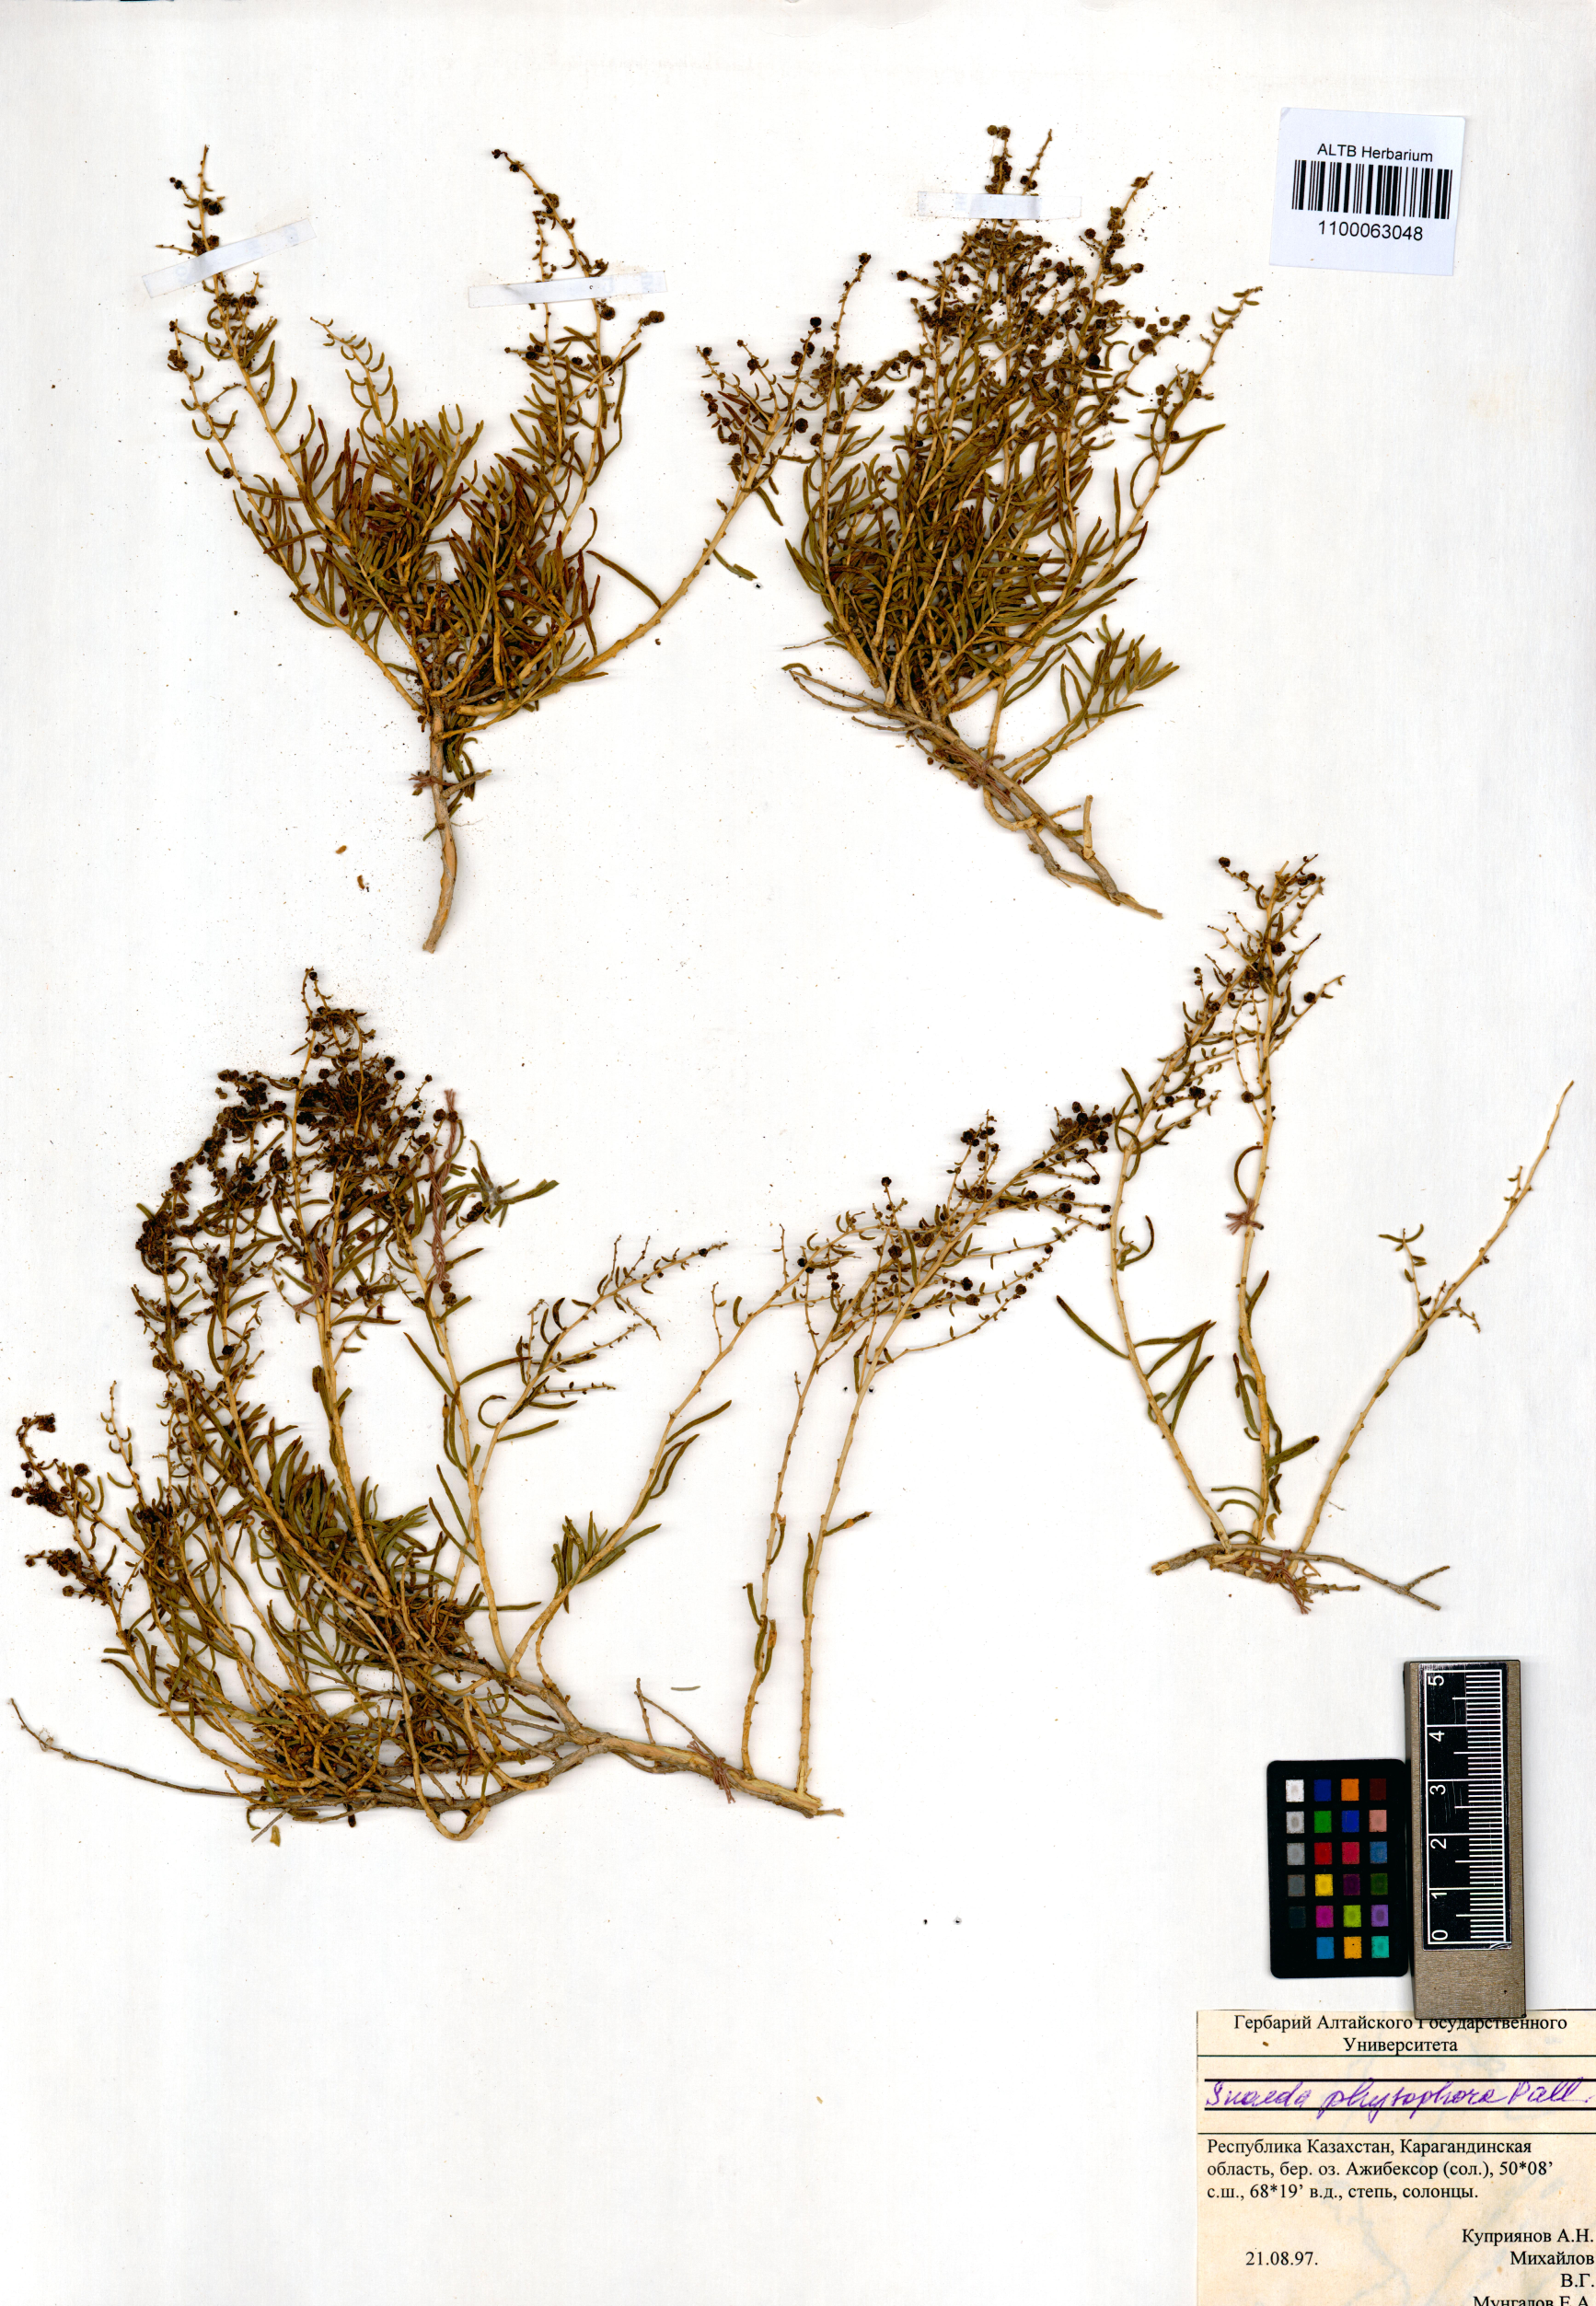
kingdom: Plantae
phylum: Tracheophyta
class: Magnoliopsida
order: Caryophyllales
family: Amaranthaceae
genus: Suaeda
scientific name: Suaeda physophora
